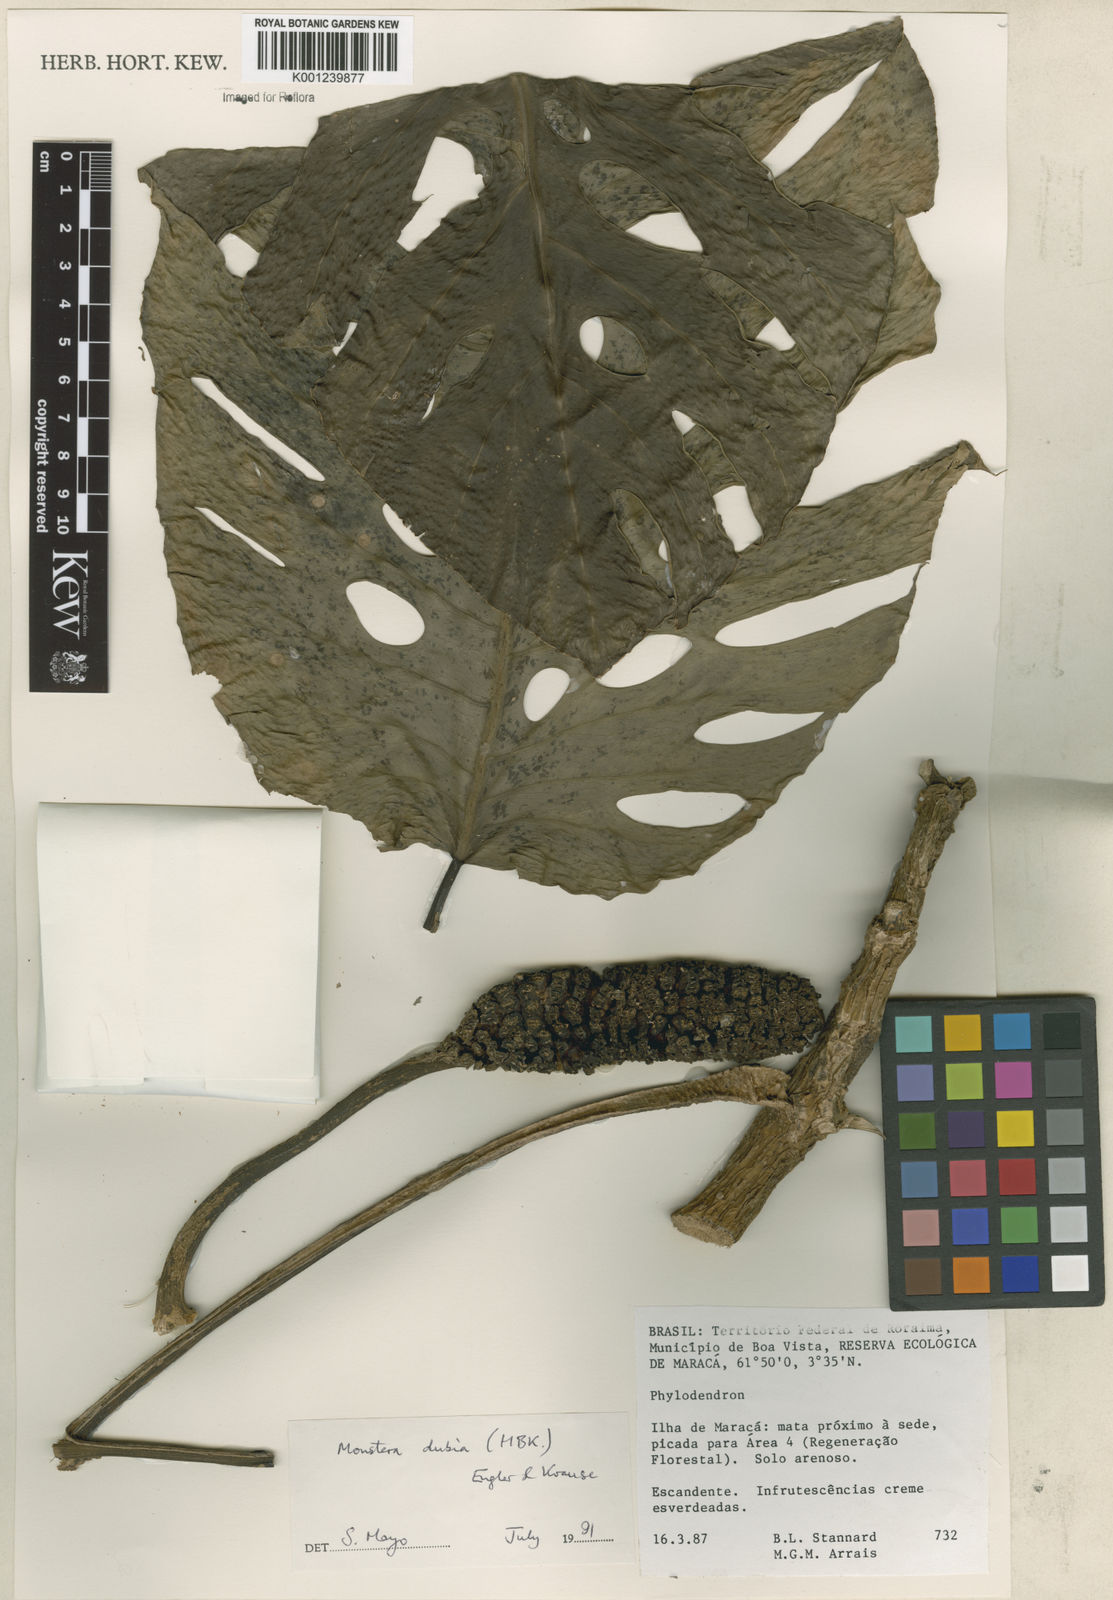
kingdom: Plantae
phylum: Tracheophyta
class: Liliopsida
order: Alismatales
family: Araceae
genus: Monstera
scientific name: Monstera dubia
